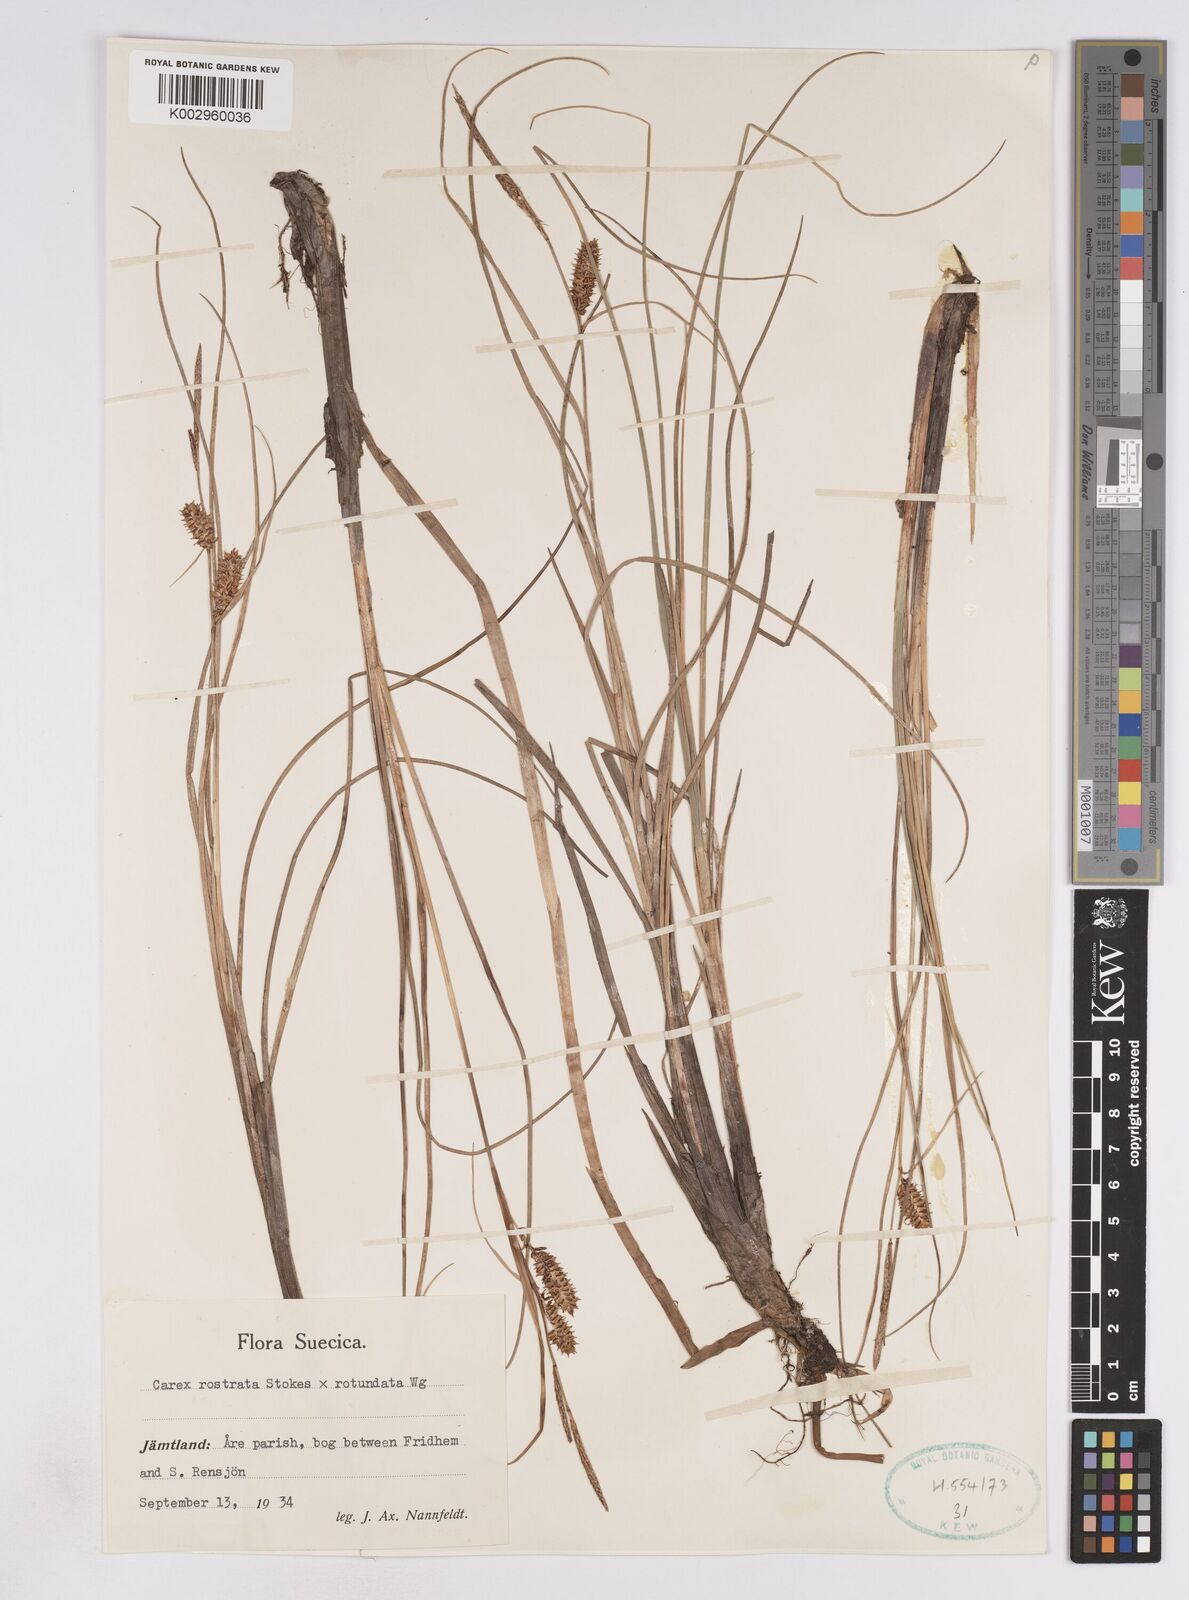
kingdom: Plantae
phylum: Tracheophyta
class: Liliopsida
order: Poales
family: Cyperaceae
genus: Carex
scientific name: Carex
